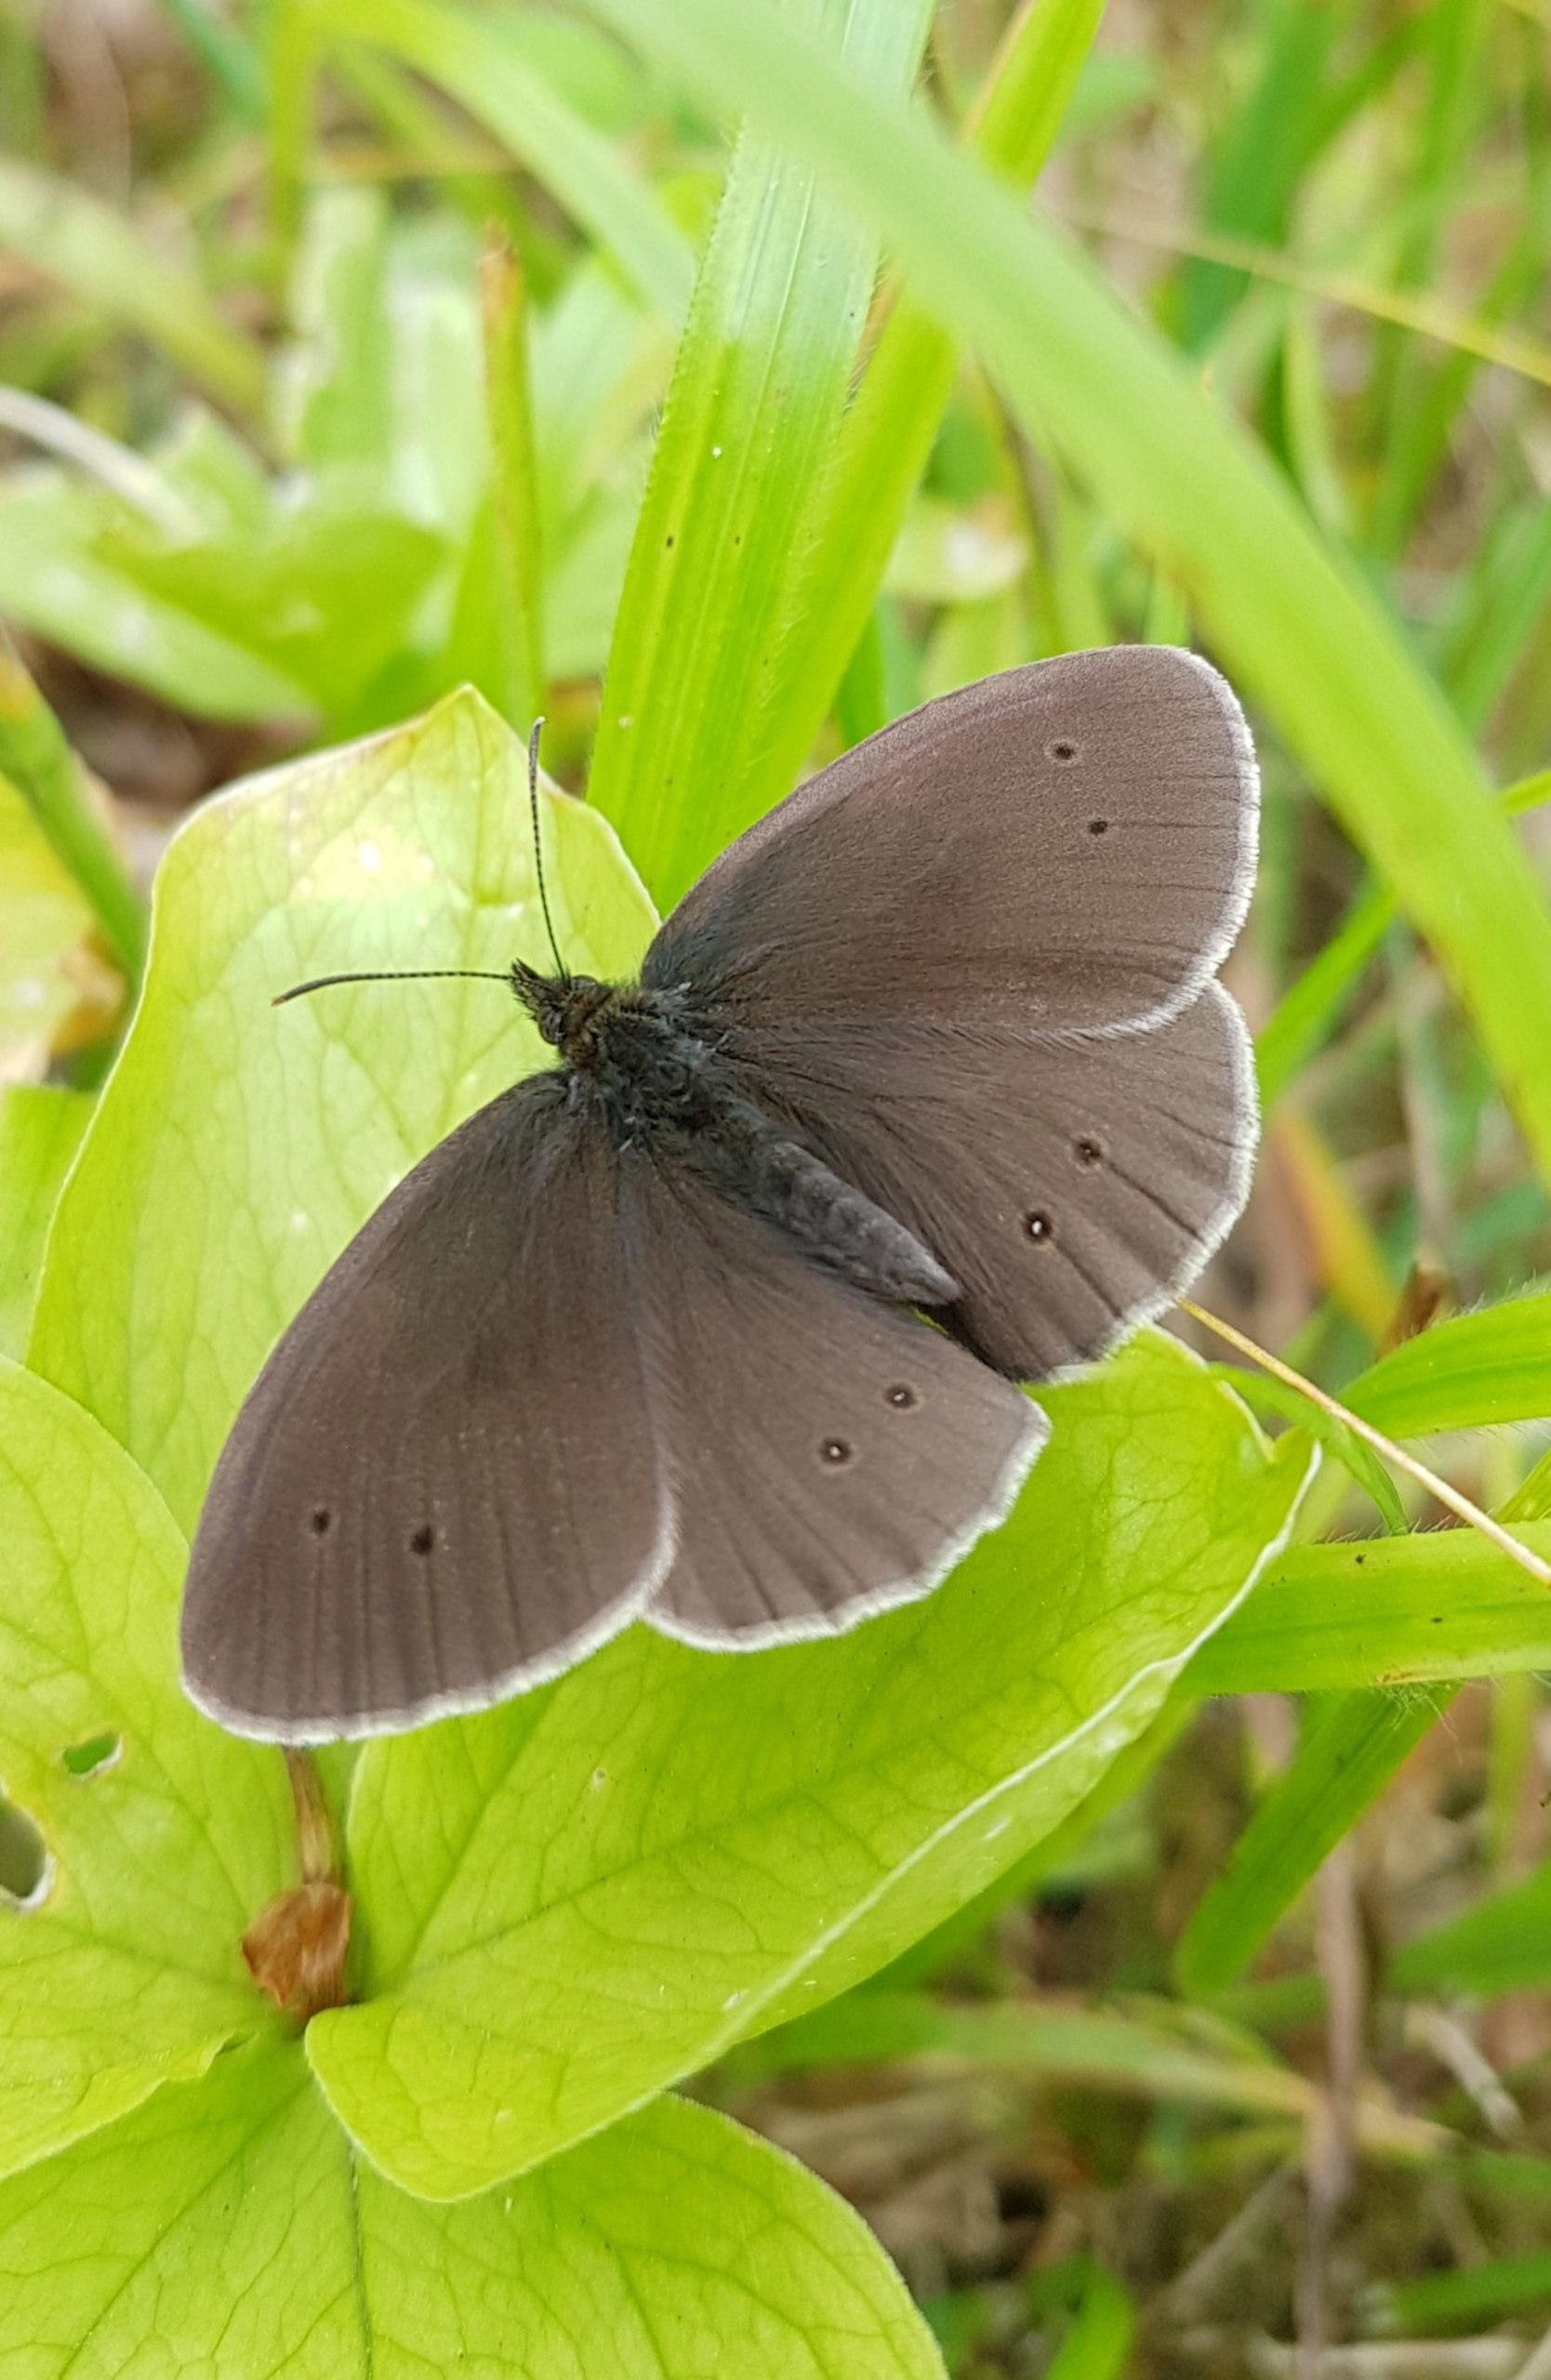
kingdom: Animalia
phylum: Arthropoda
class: Insecta
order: Lepidoptera
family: Nymphalidae
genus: Aphantopus
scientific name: Aphantopus hyperantus
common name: Engrandøje
